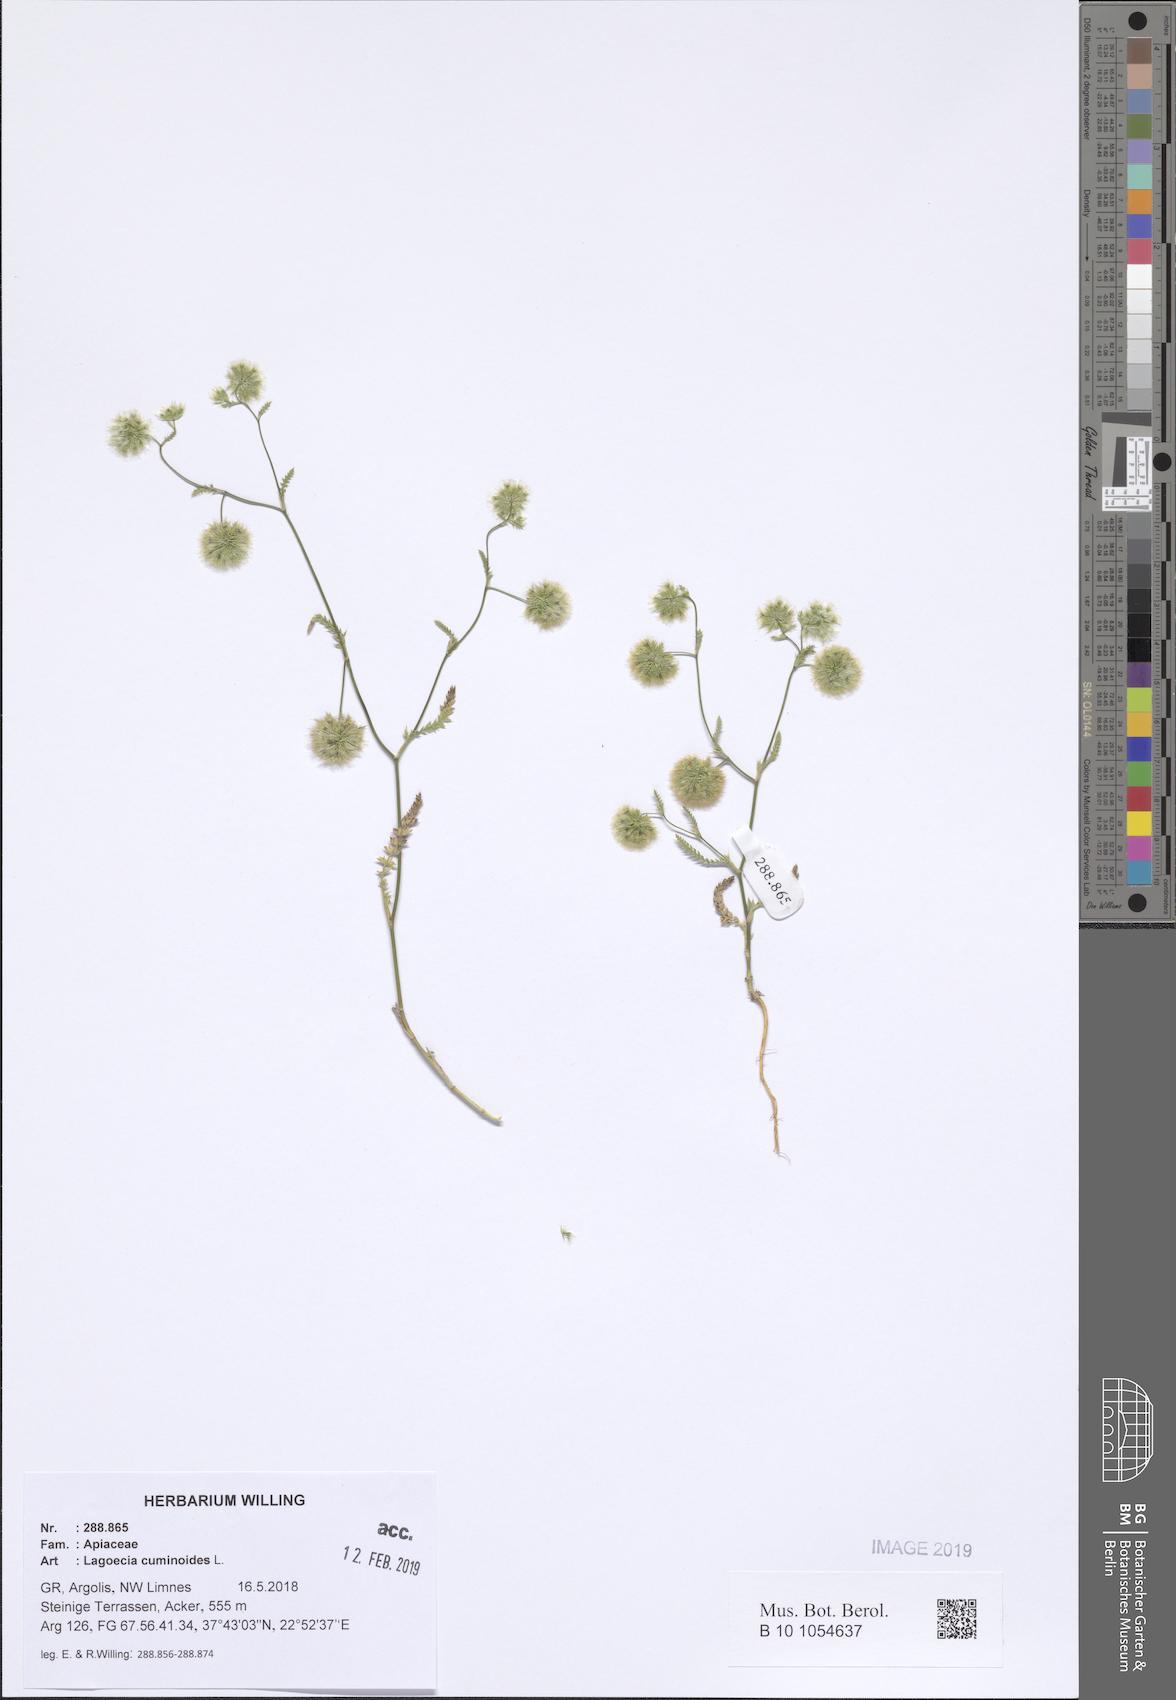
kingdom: Plantae
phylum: Tracheophyta
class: Magnoliopsida
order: Apiales
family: Apiaceae
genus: Lagoecia
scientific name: Lagoecia cuminoides
